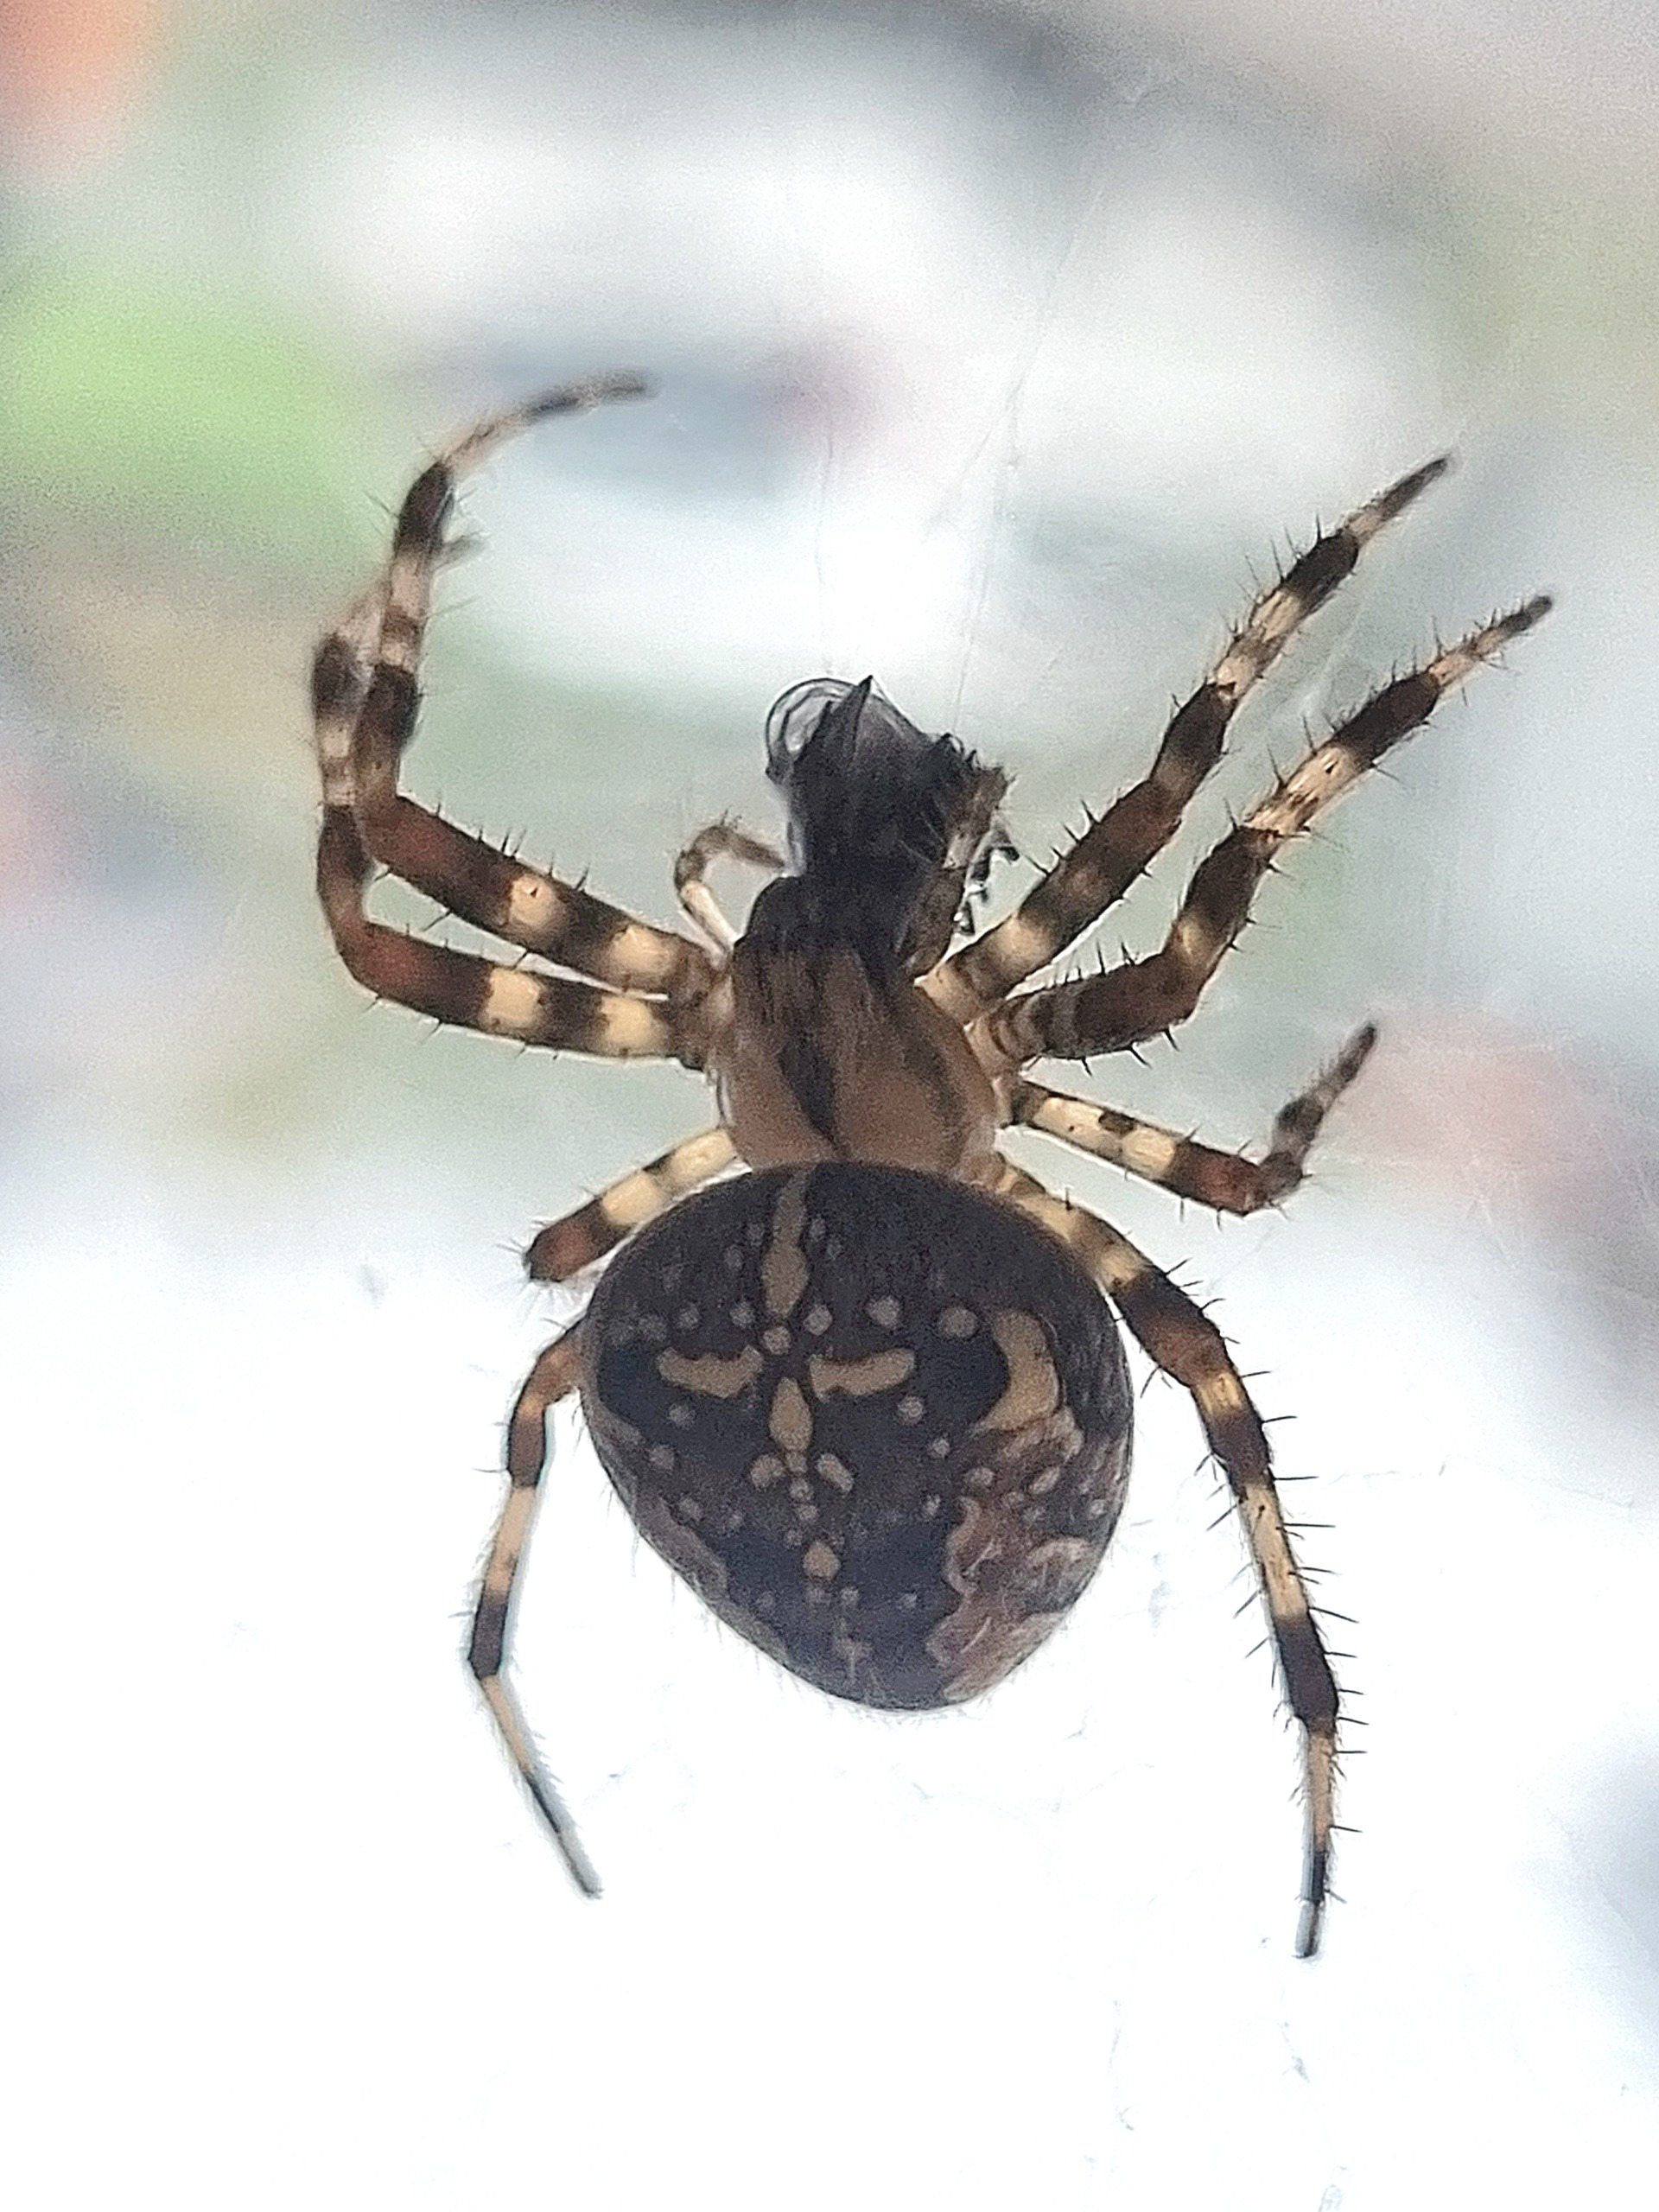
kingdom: Animalia
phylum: Arthropoda
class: Arachnida
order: Araneae
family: Araneidae
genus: Araneus
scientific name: Araneus diadematus
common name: Korsedderkop
